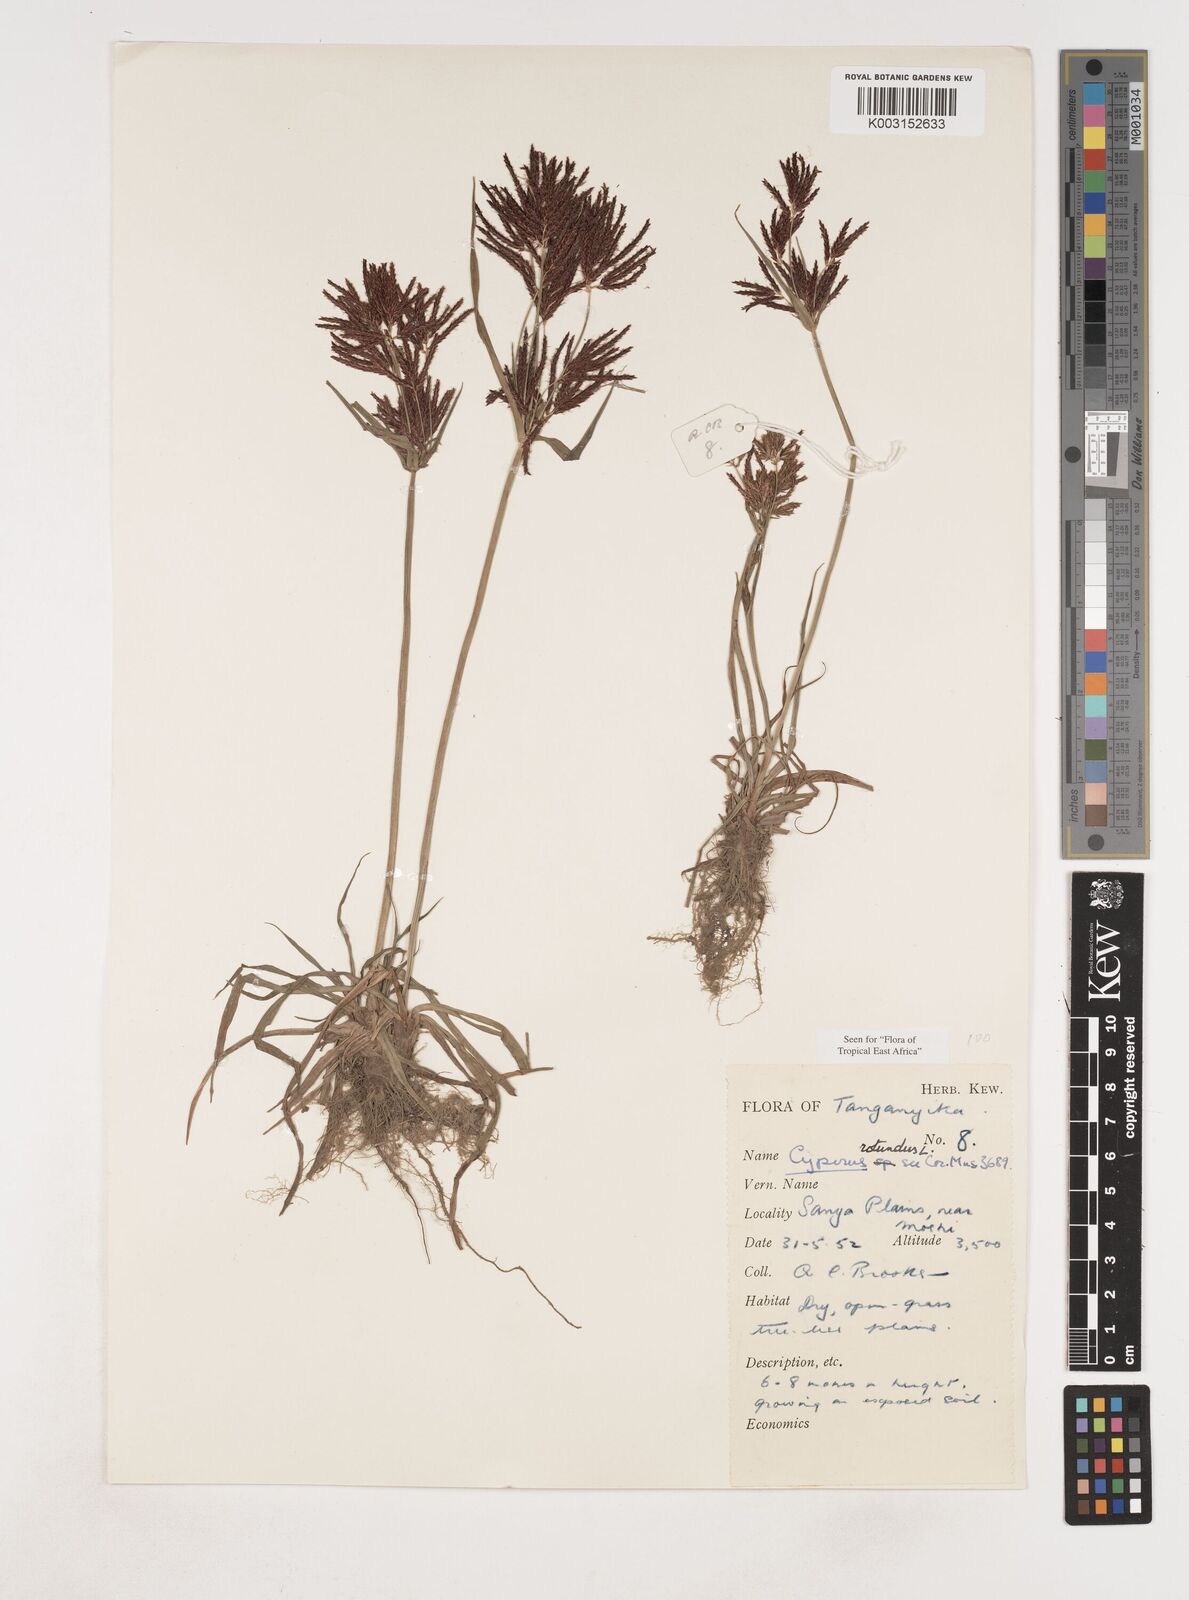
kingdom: Plantae
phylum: Tracheophyta
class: Liliopsida
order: Poales
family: Cyperaceae
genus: Cyperus
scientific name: Cyperus rotundus
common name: Nutgrass
